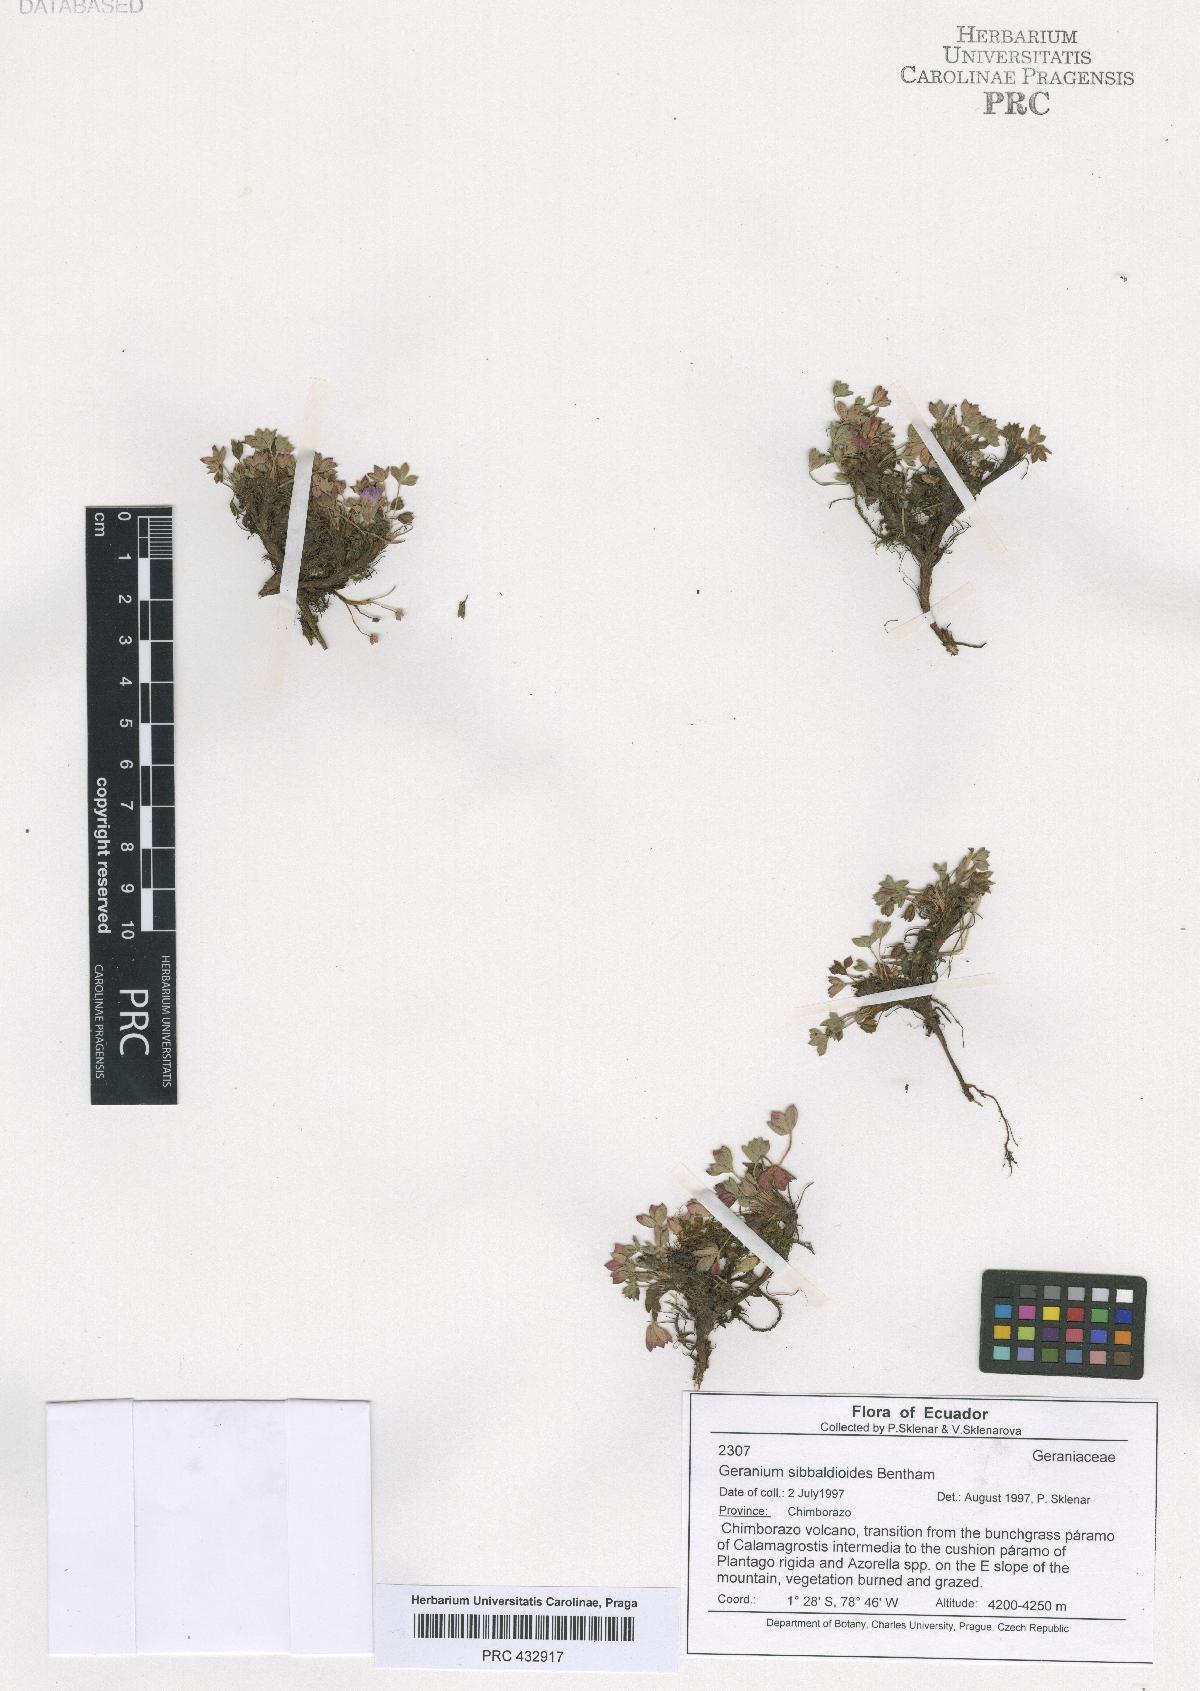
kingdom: Plantae
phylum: Tracheophyta
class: Magnoliopsida
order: Geraniales
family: Geraniaceae
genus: Geranium
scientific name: Geranium sibbaldioides
